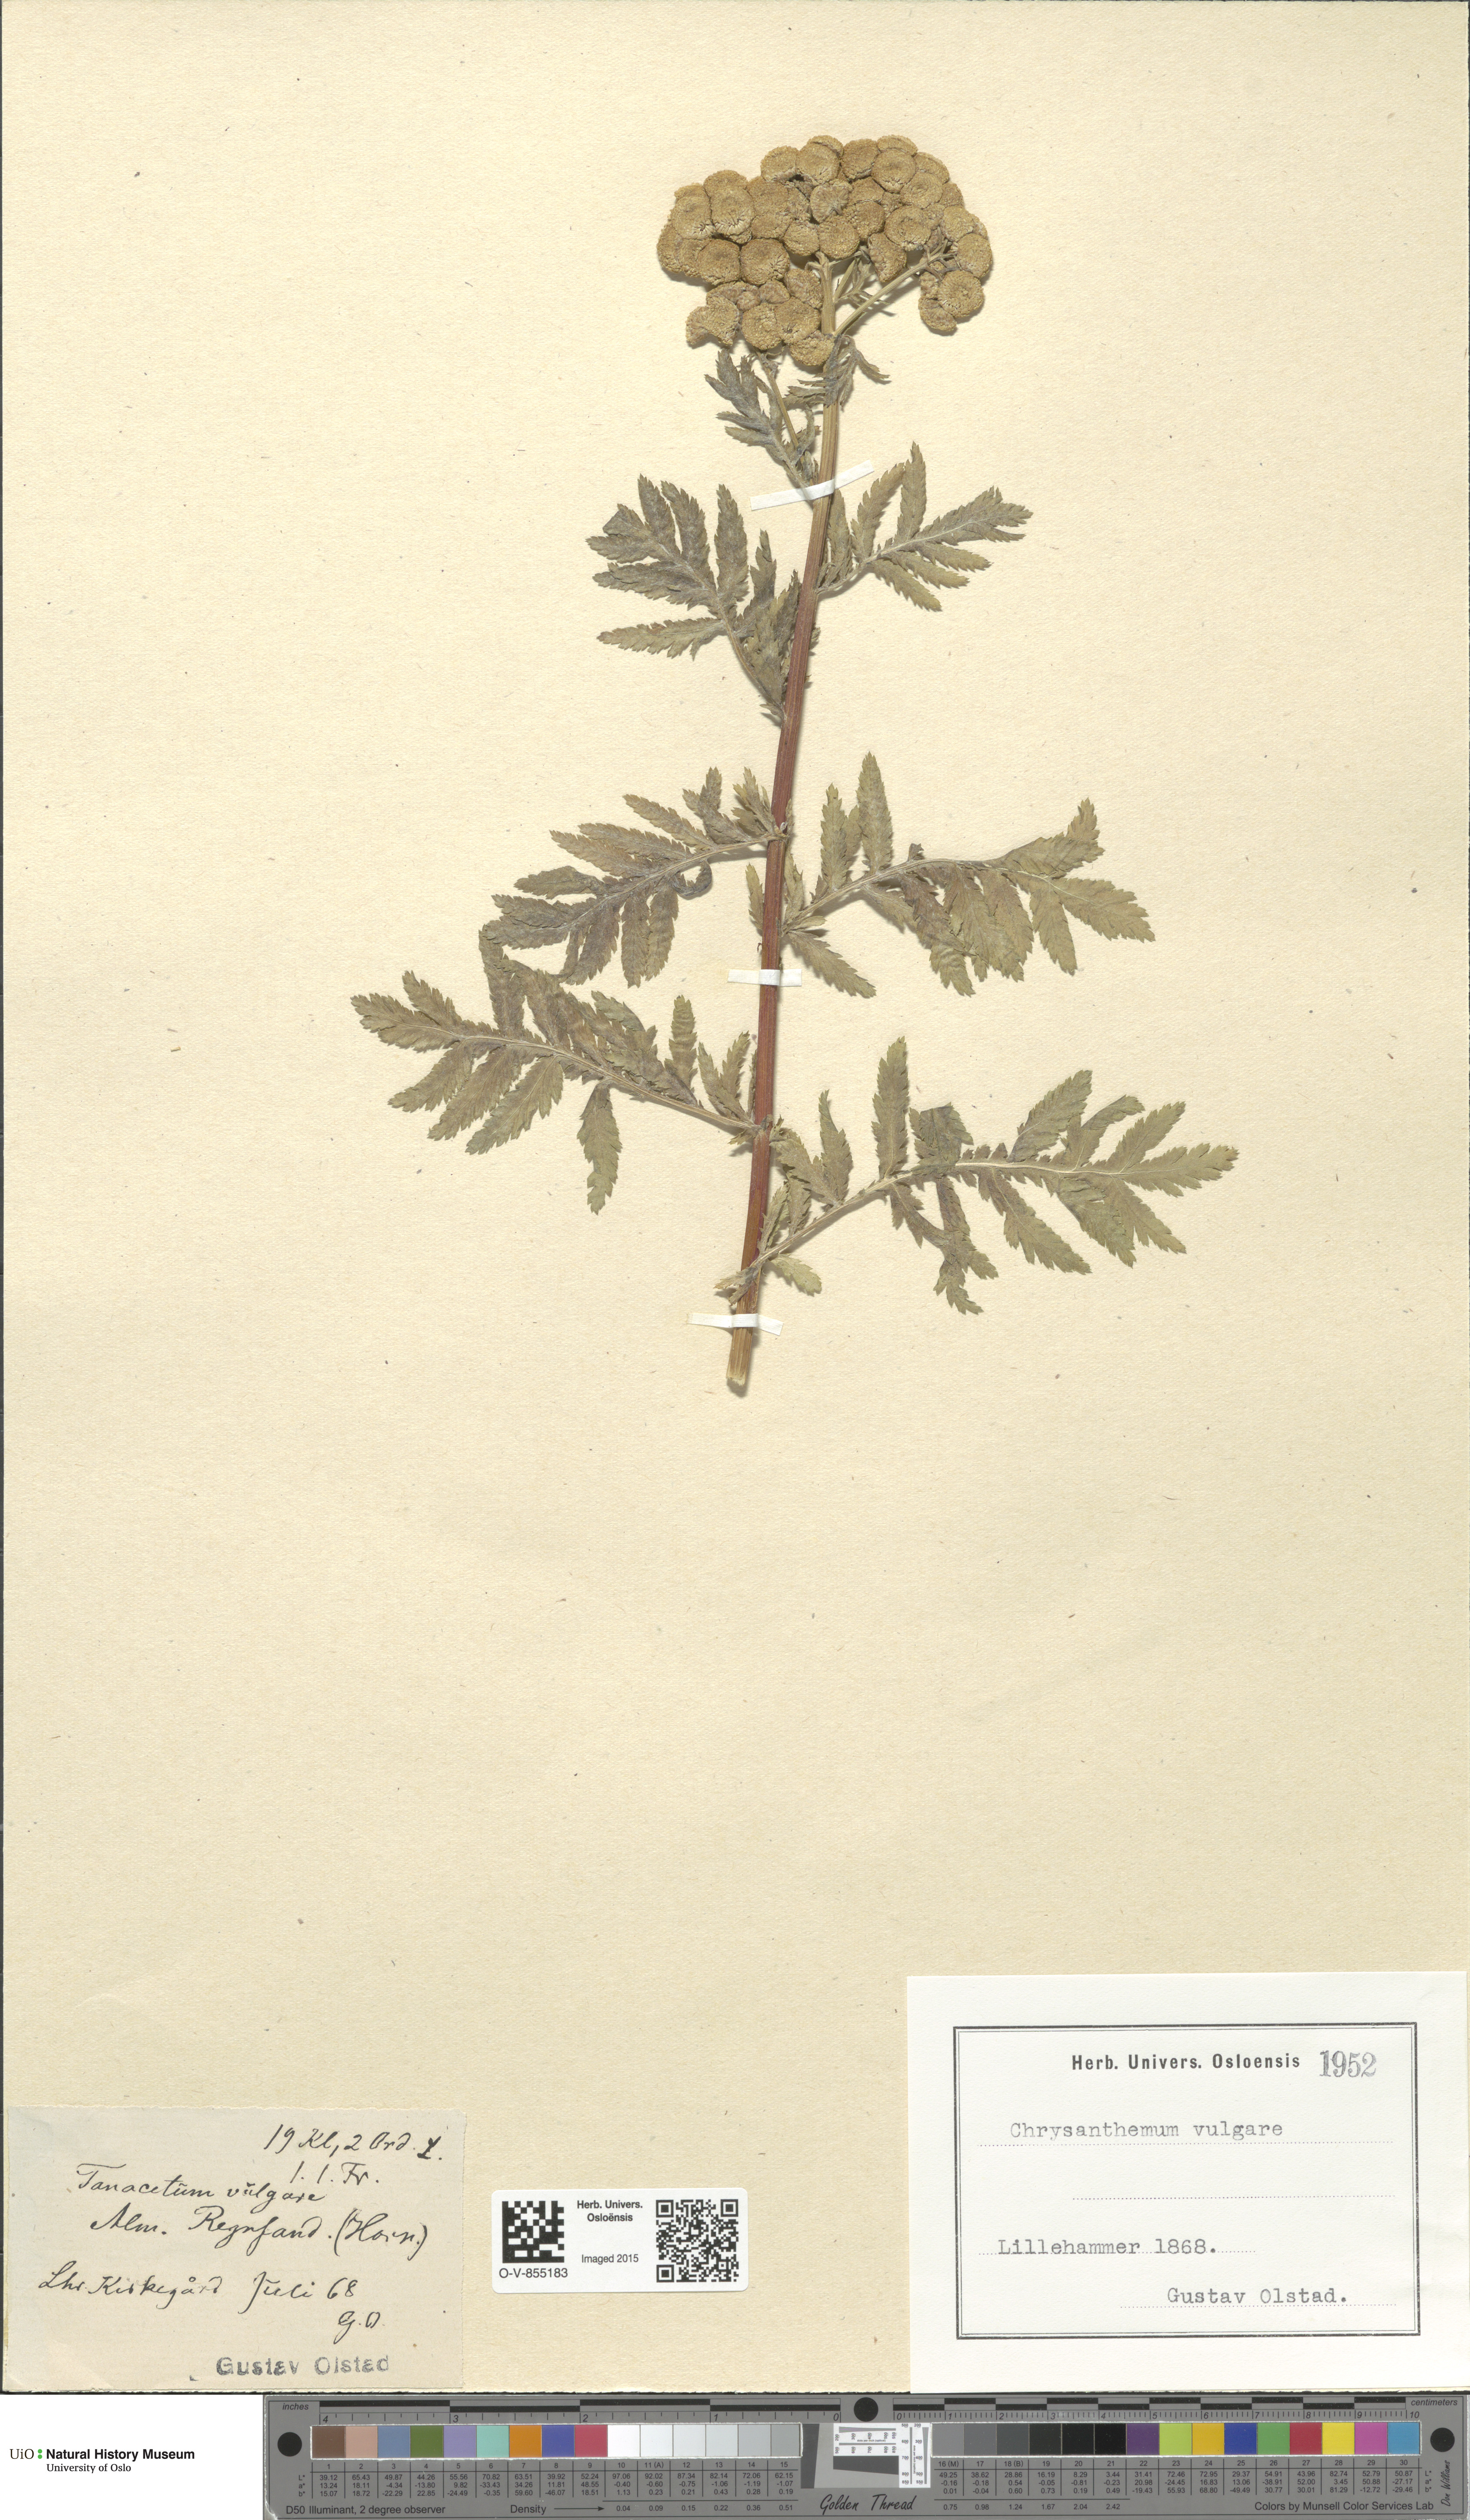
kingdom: Plantae
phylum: Tracheophyta
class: Magnoliopsida
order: Asterales
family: Asteraceae
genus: Tanacetum
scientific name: Tanacetum vulgare
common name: Common tansy
